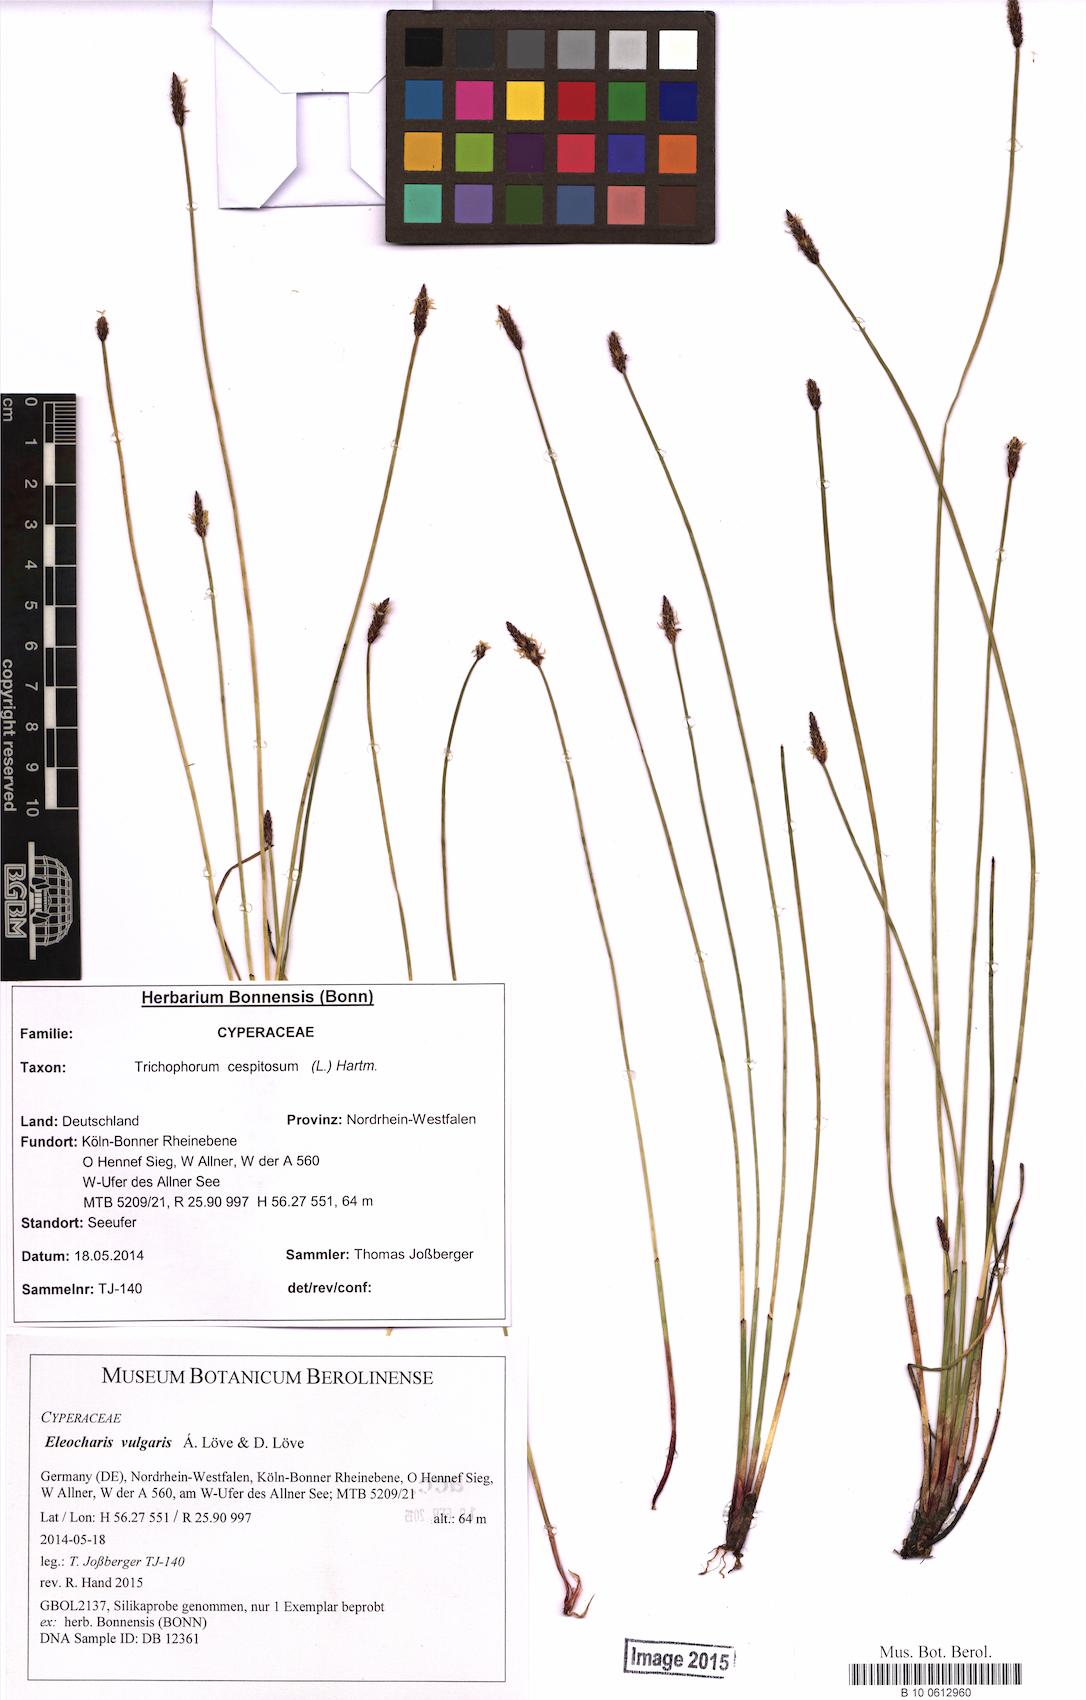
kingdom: Plantae
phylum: Tracheophyta
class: Liliopsida
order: Poales
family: Cyperaceae
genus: Eleocharis
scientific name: Eleocharis palustris
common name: Common spike-rush
